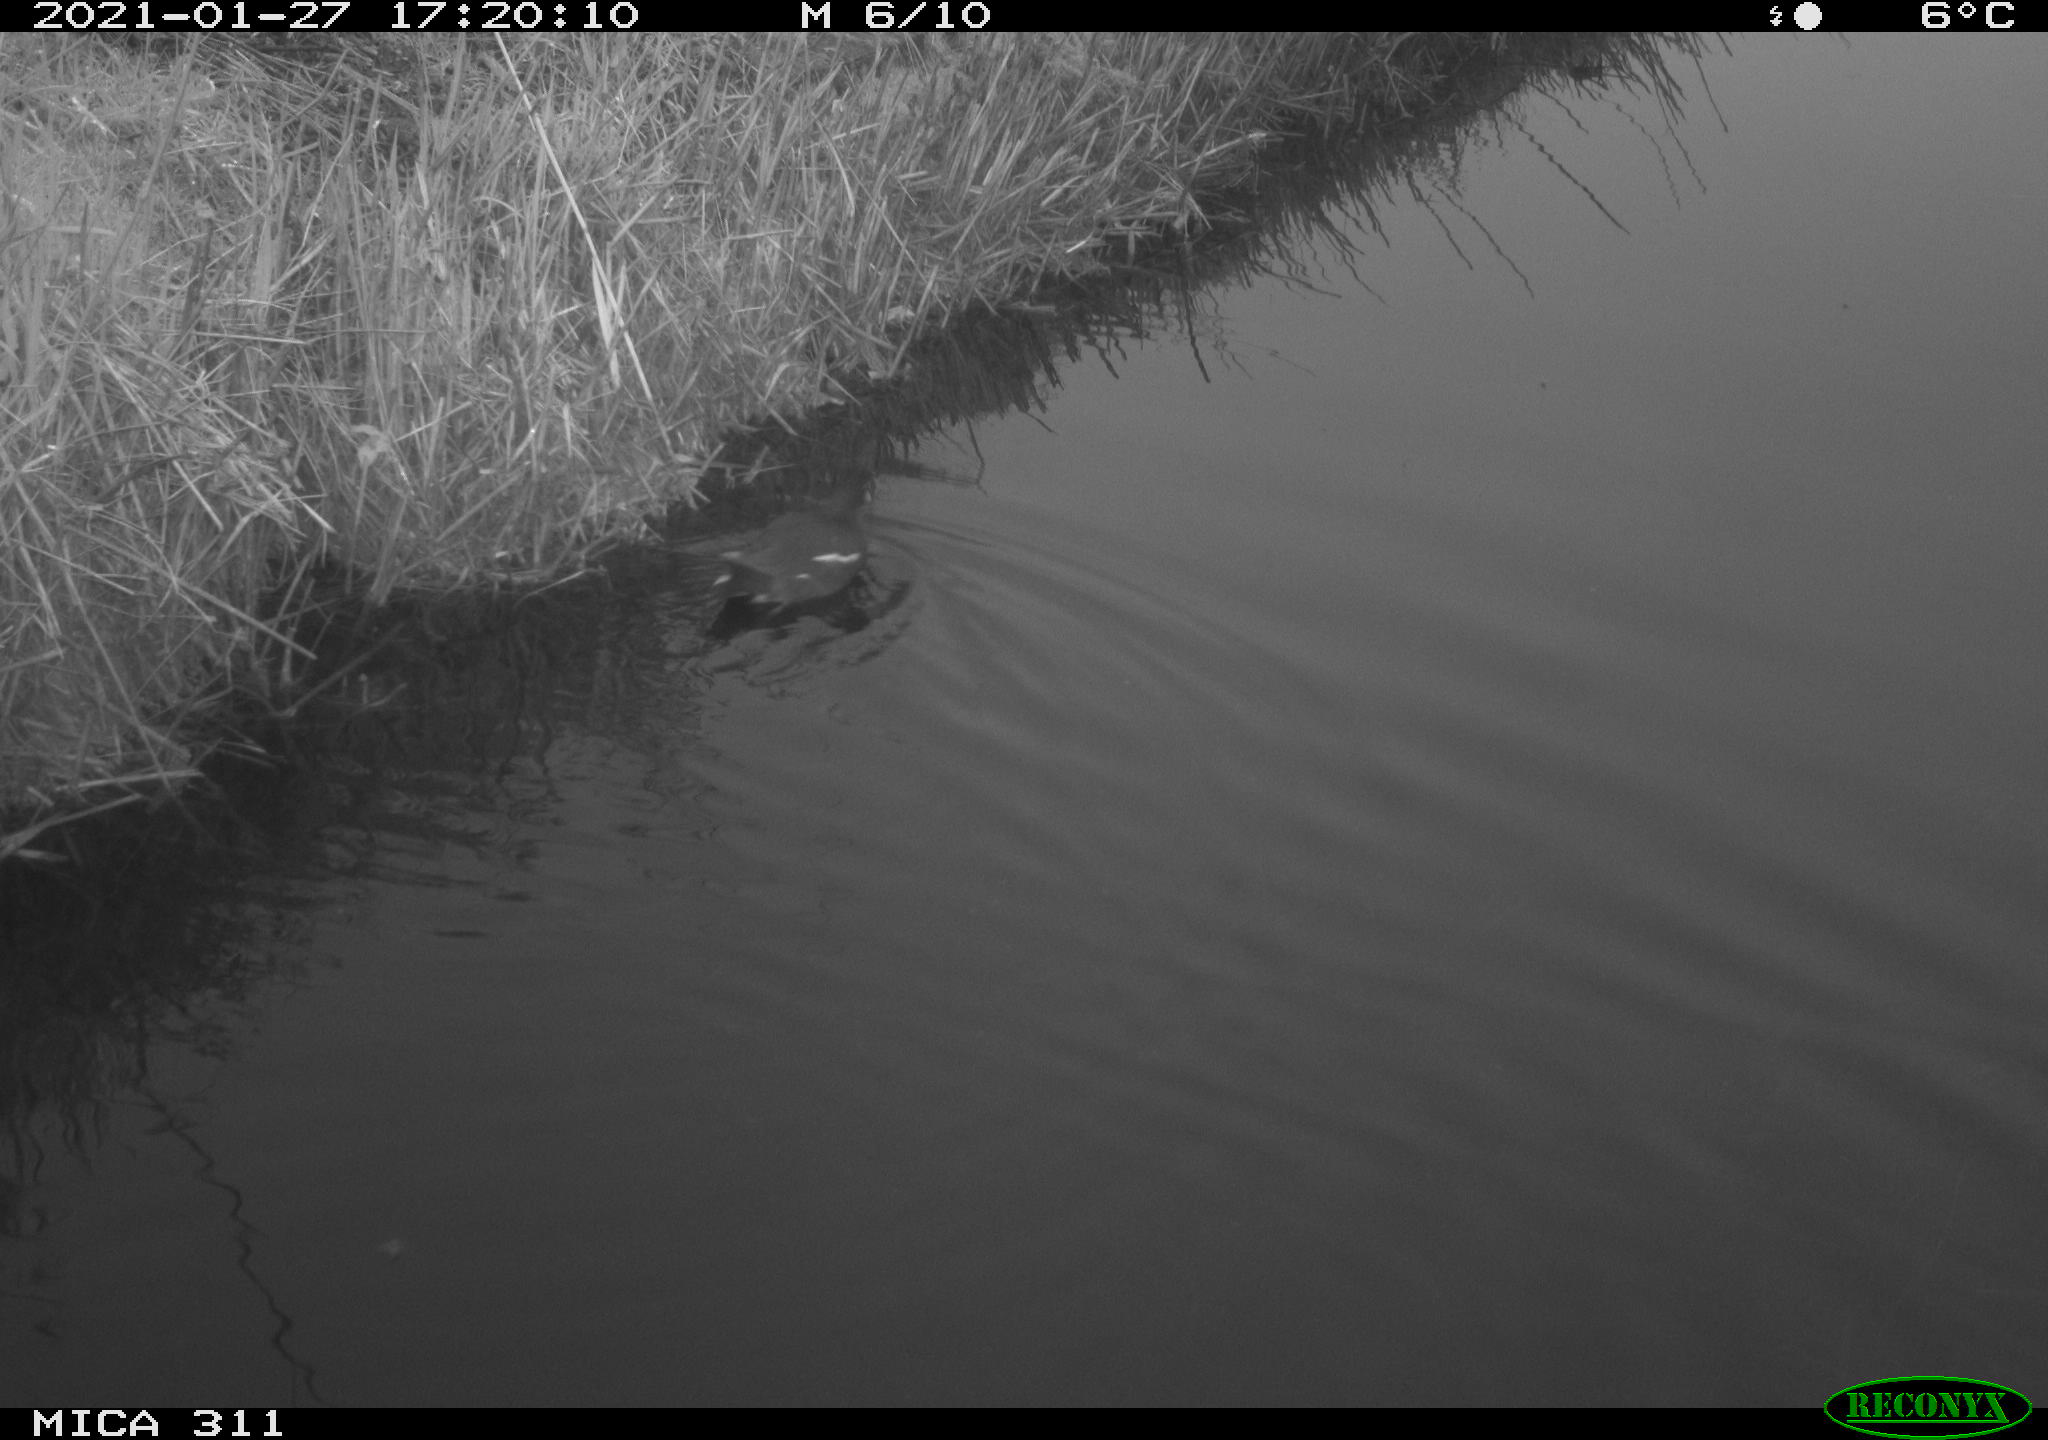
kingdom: Animalia
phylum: Chordata
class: Aves
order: Gruiformes
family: Rallidae
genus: Gallinula
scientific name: Gallinula chloropus
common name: Common moorhen
